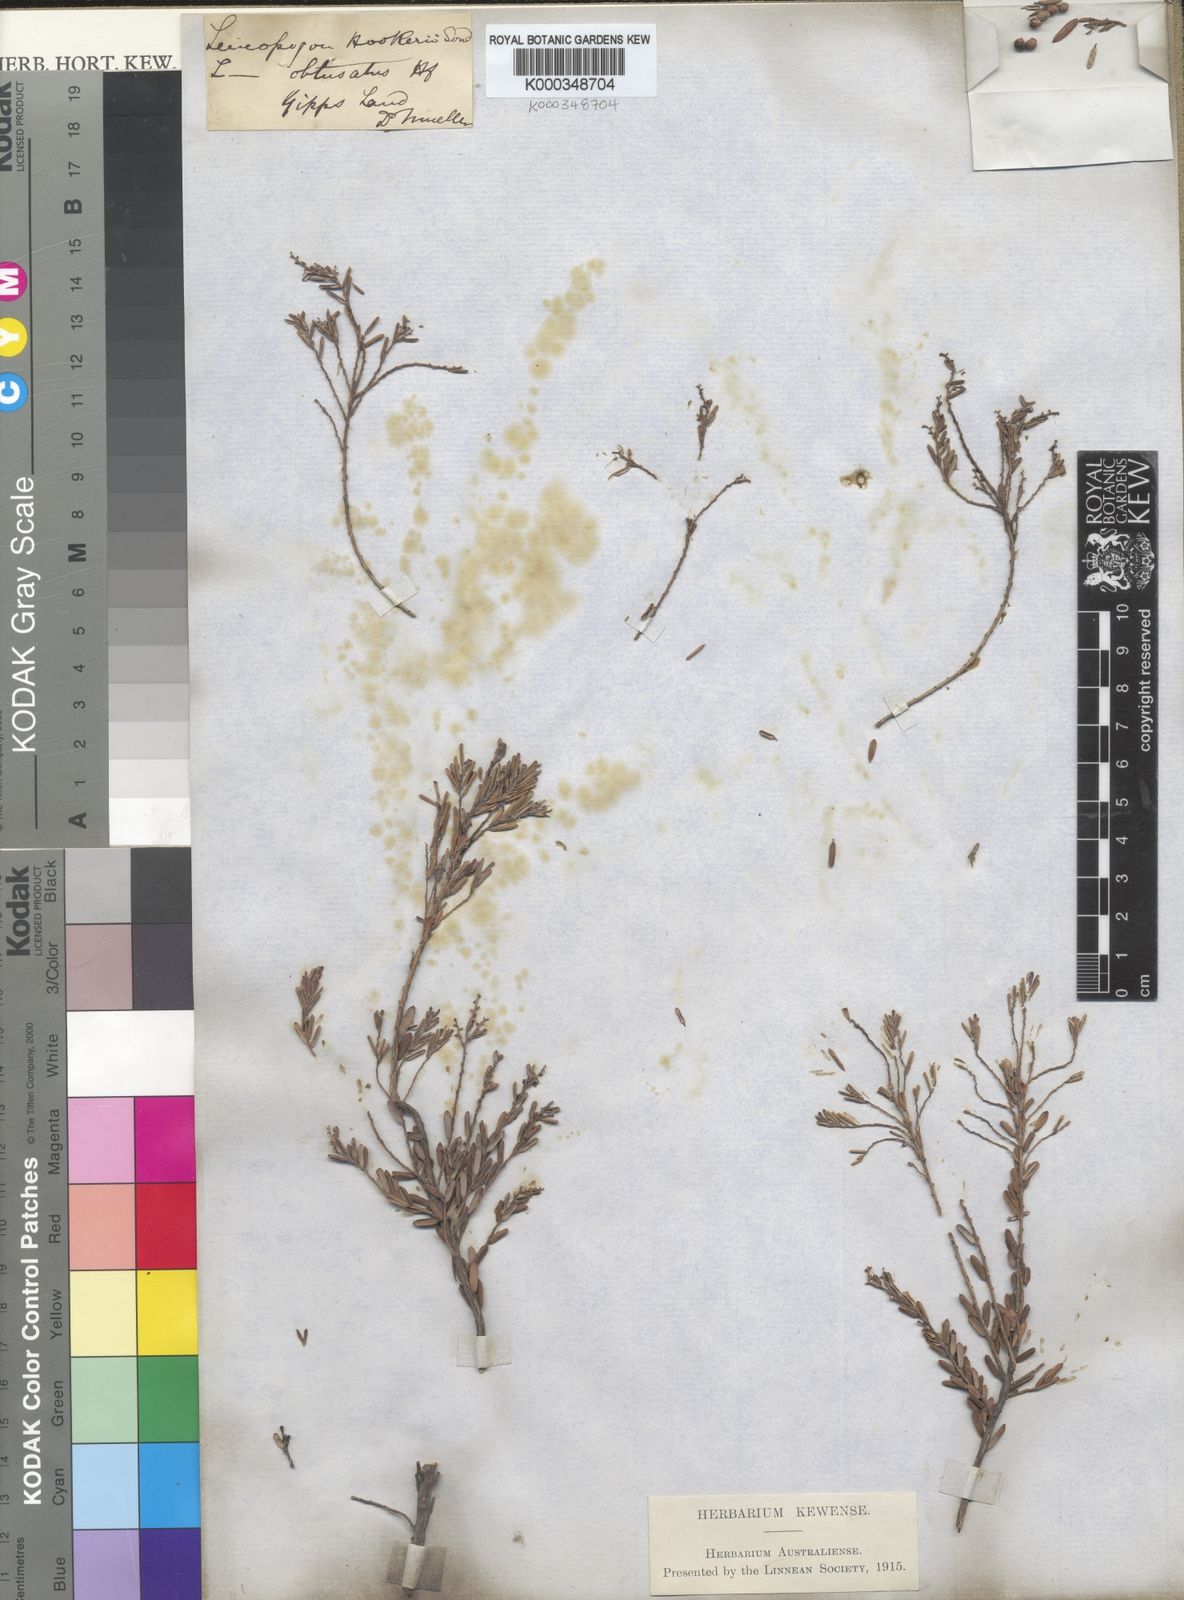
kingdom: Plantae
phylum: Tracheophyta
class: Magnoliopsida
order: Ericales
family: Ericaceae
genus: Acrothamnus
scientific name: Acrothamnus hookeri
